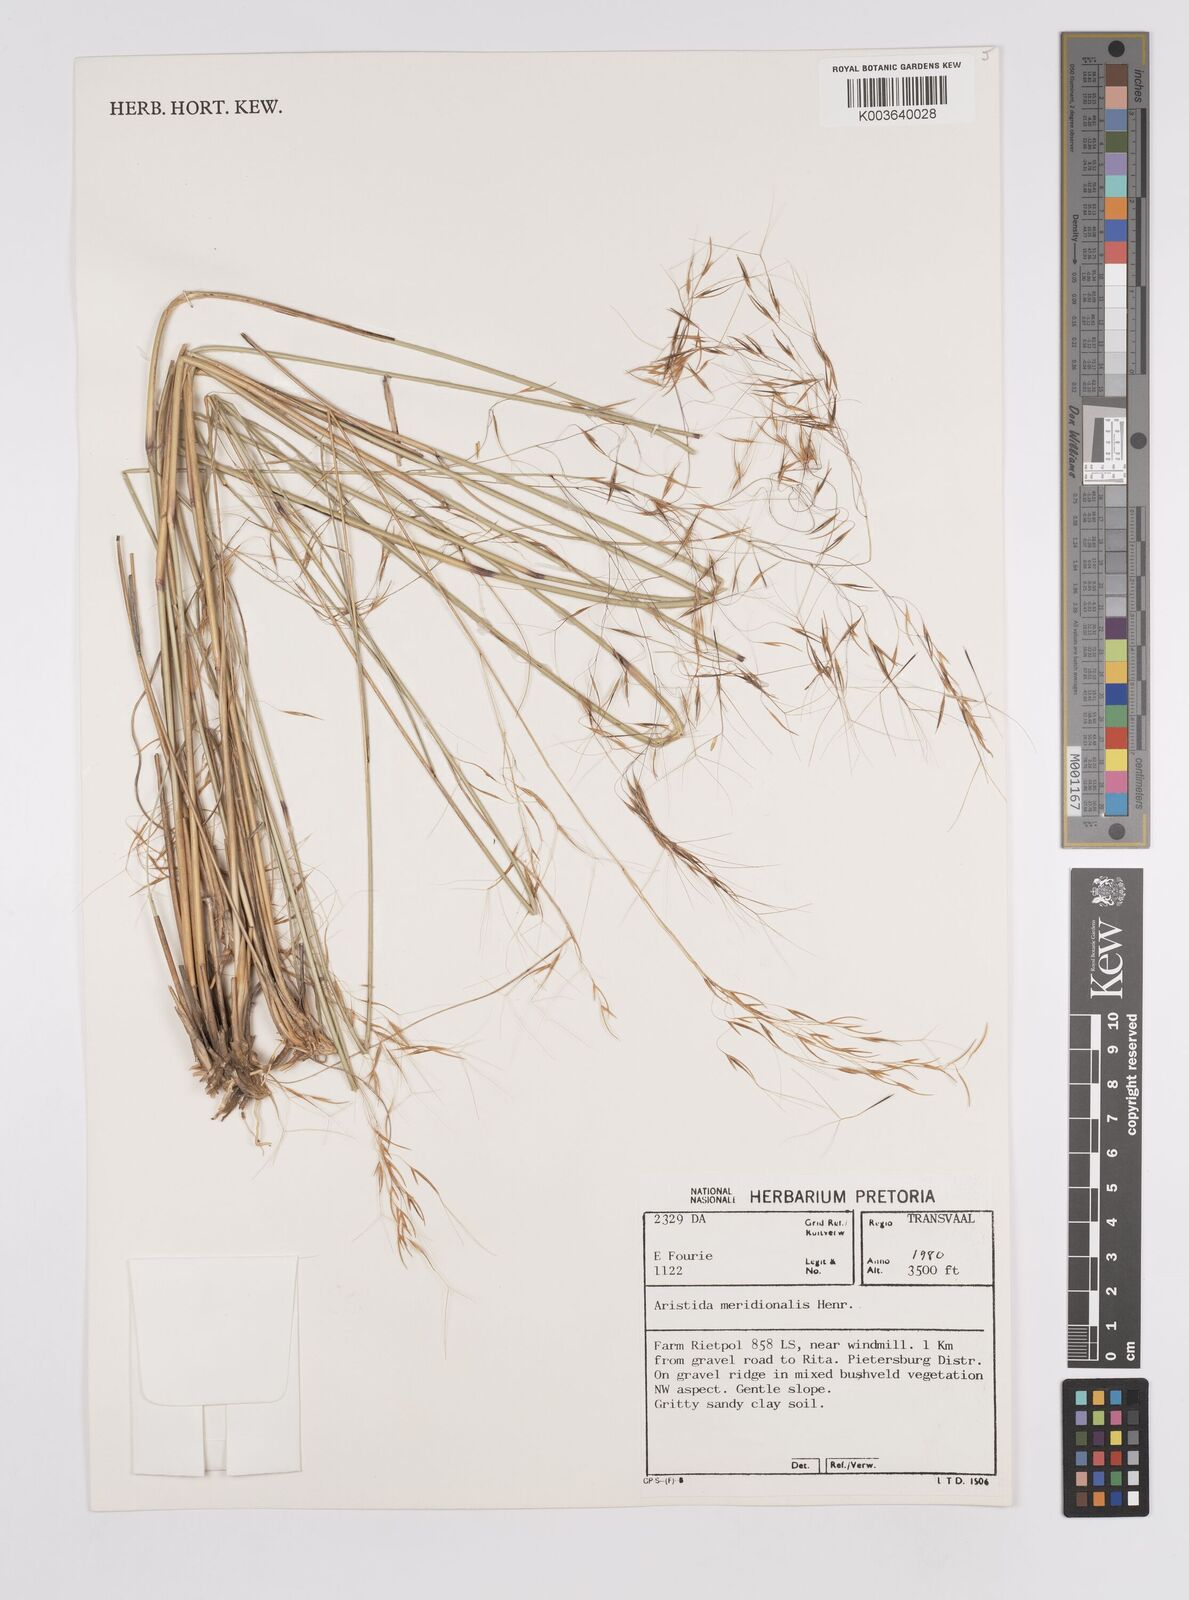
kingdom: Plantae
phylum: Tracheophyta
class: Liliopsida
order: Poales
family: Poaceae
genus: Aristida
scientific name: Aristida meridionalis
